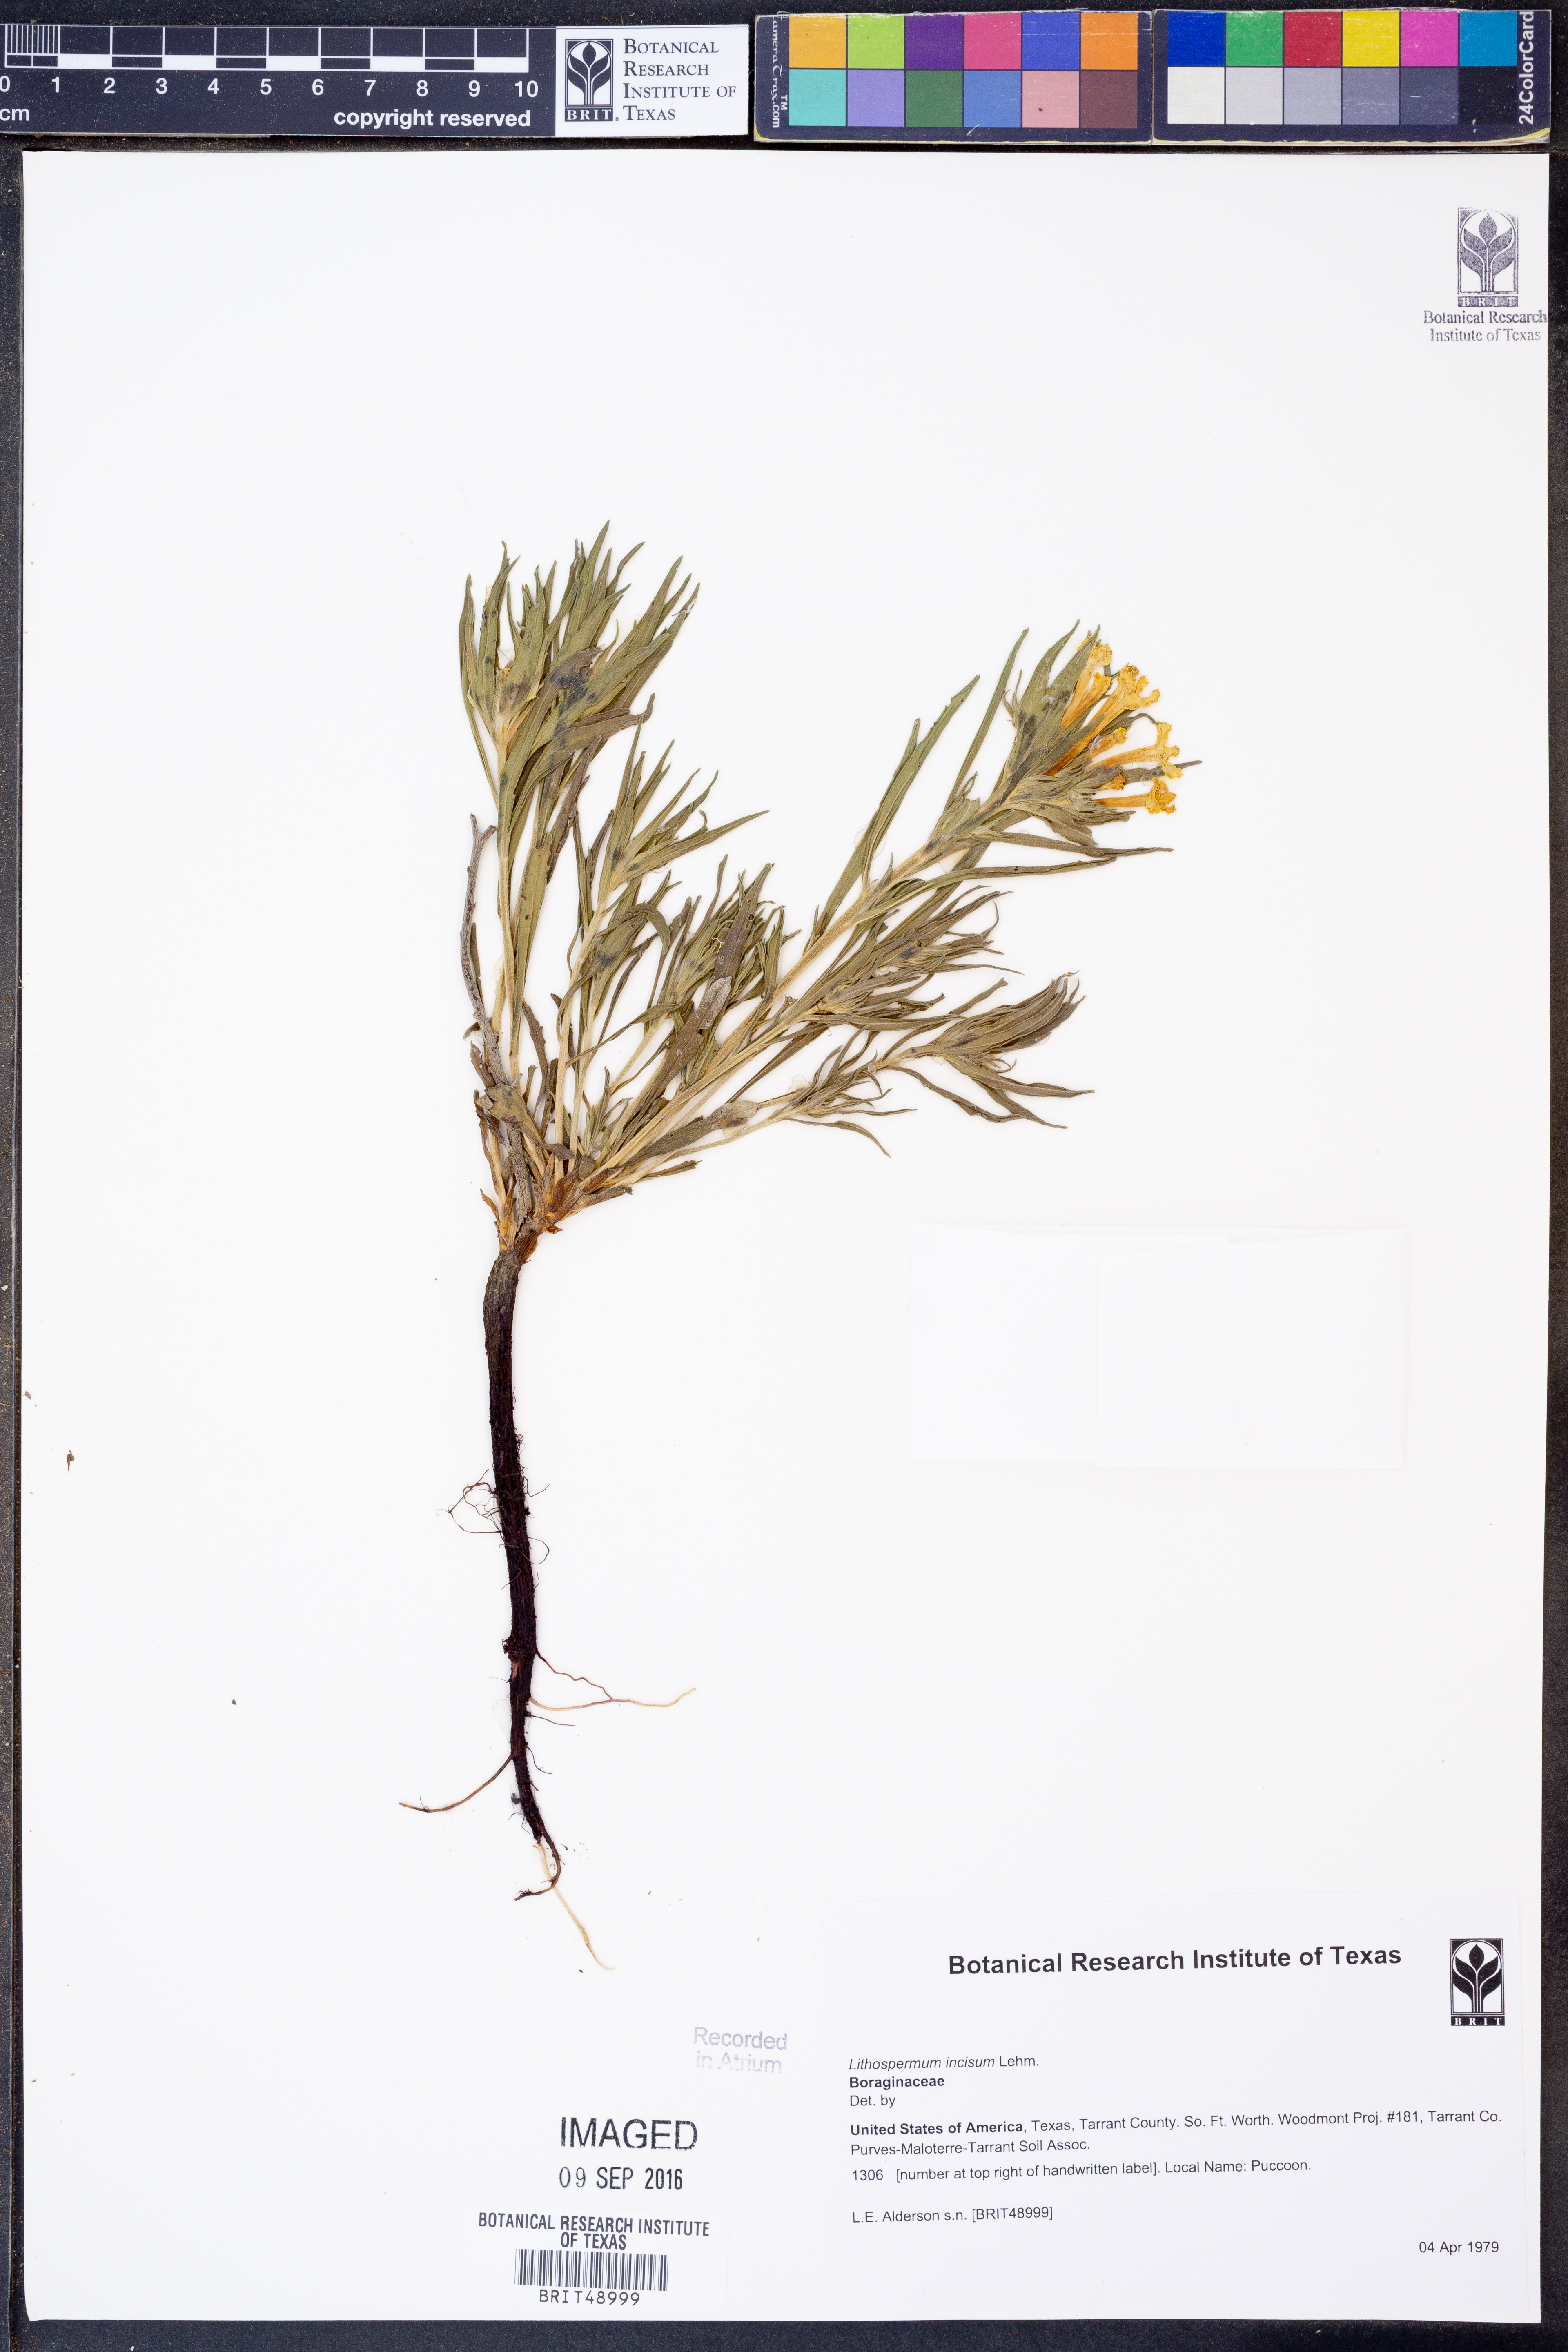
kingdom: Plantae
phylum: Tracheophyta
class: Magnoliopsida
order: Boraginales
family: Boraginaceae
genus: Lithospermum
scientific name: Lithospermum incisum
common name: Fringed gromwell
